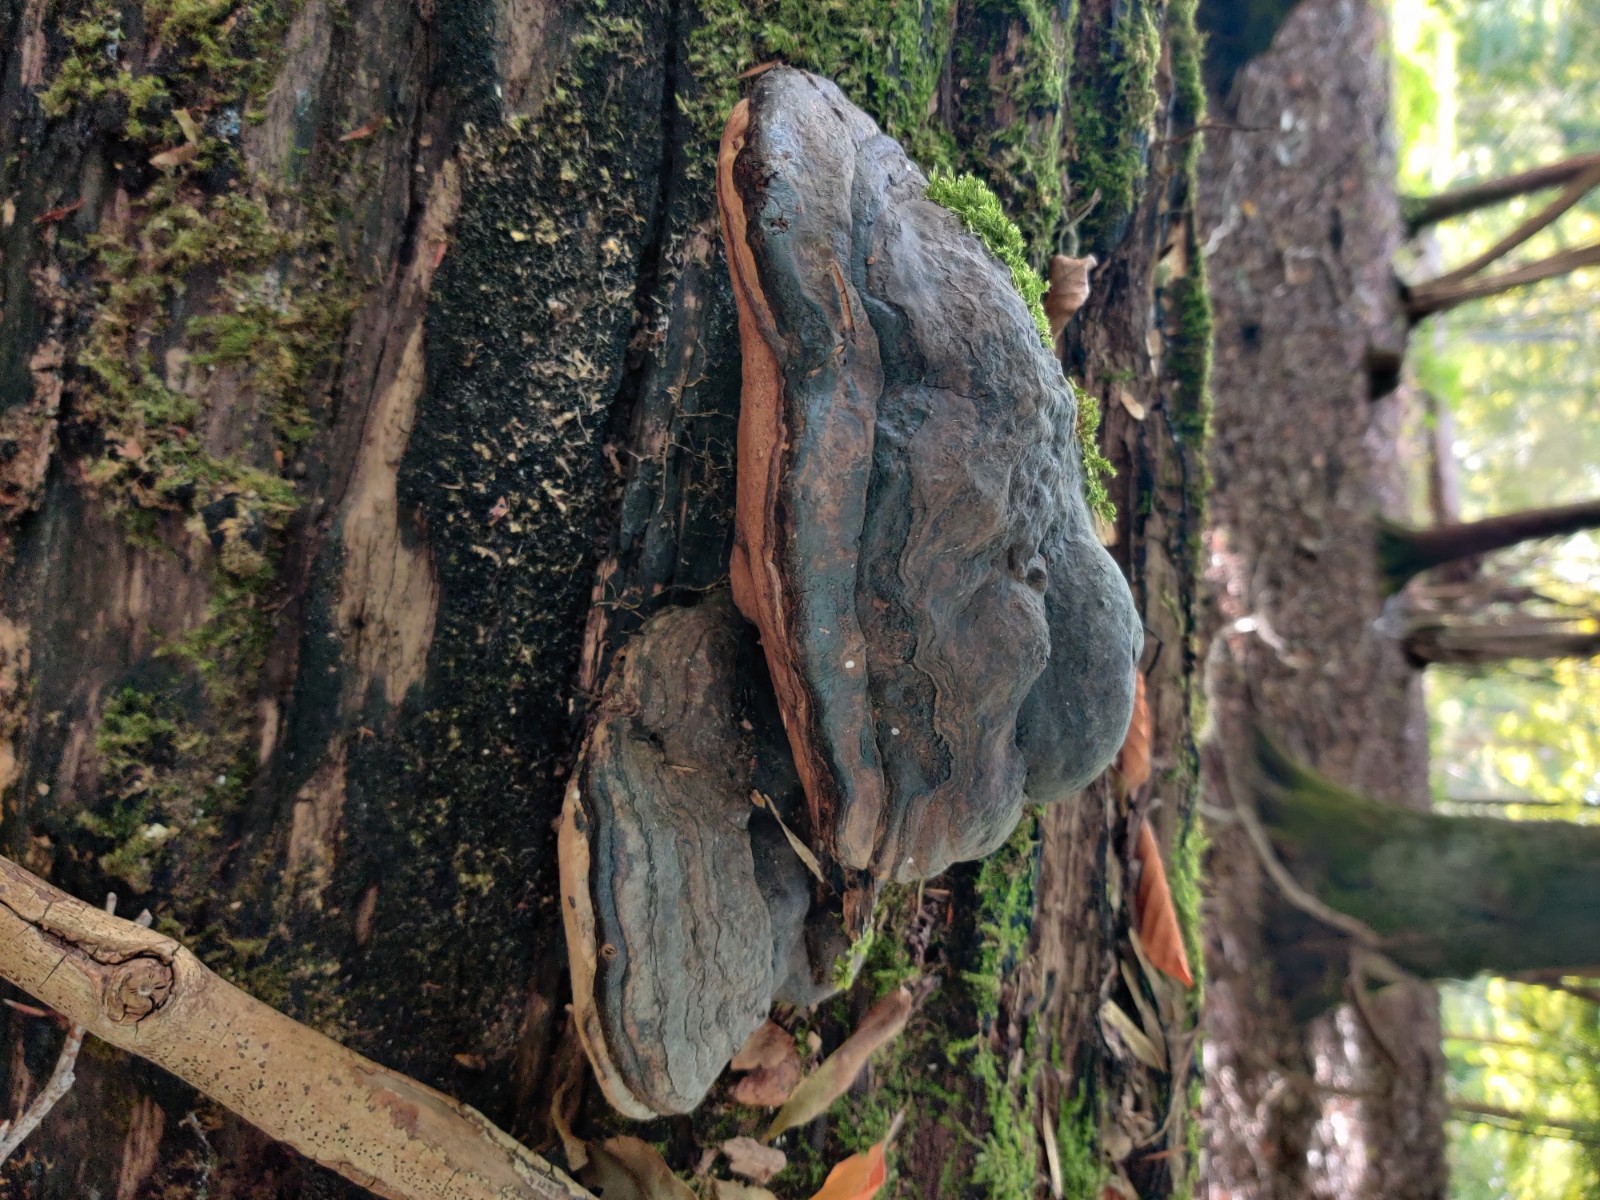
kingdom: Fungi
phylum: Basidiomycota
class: Agaricomycetes
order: Polyporales
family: Polyporaceae
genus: Fomes
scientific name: Fomes fomentarius
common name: tøndersvamp
